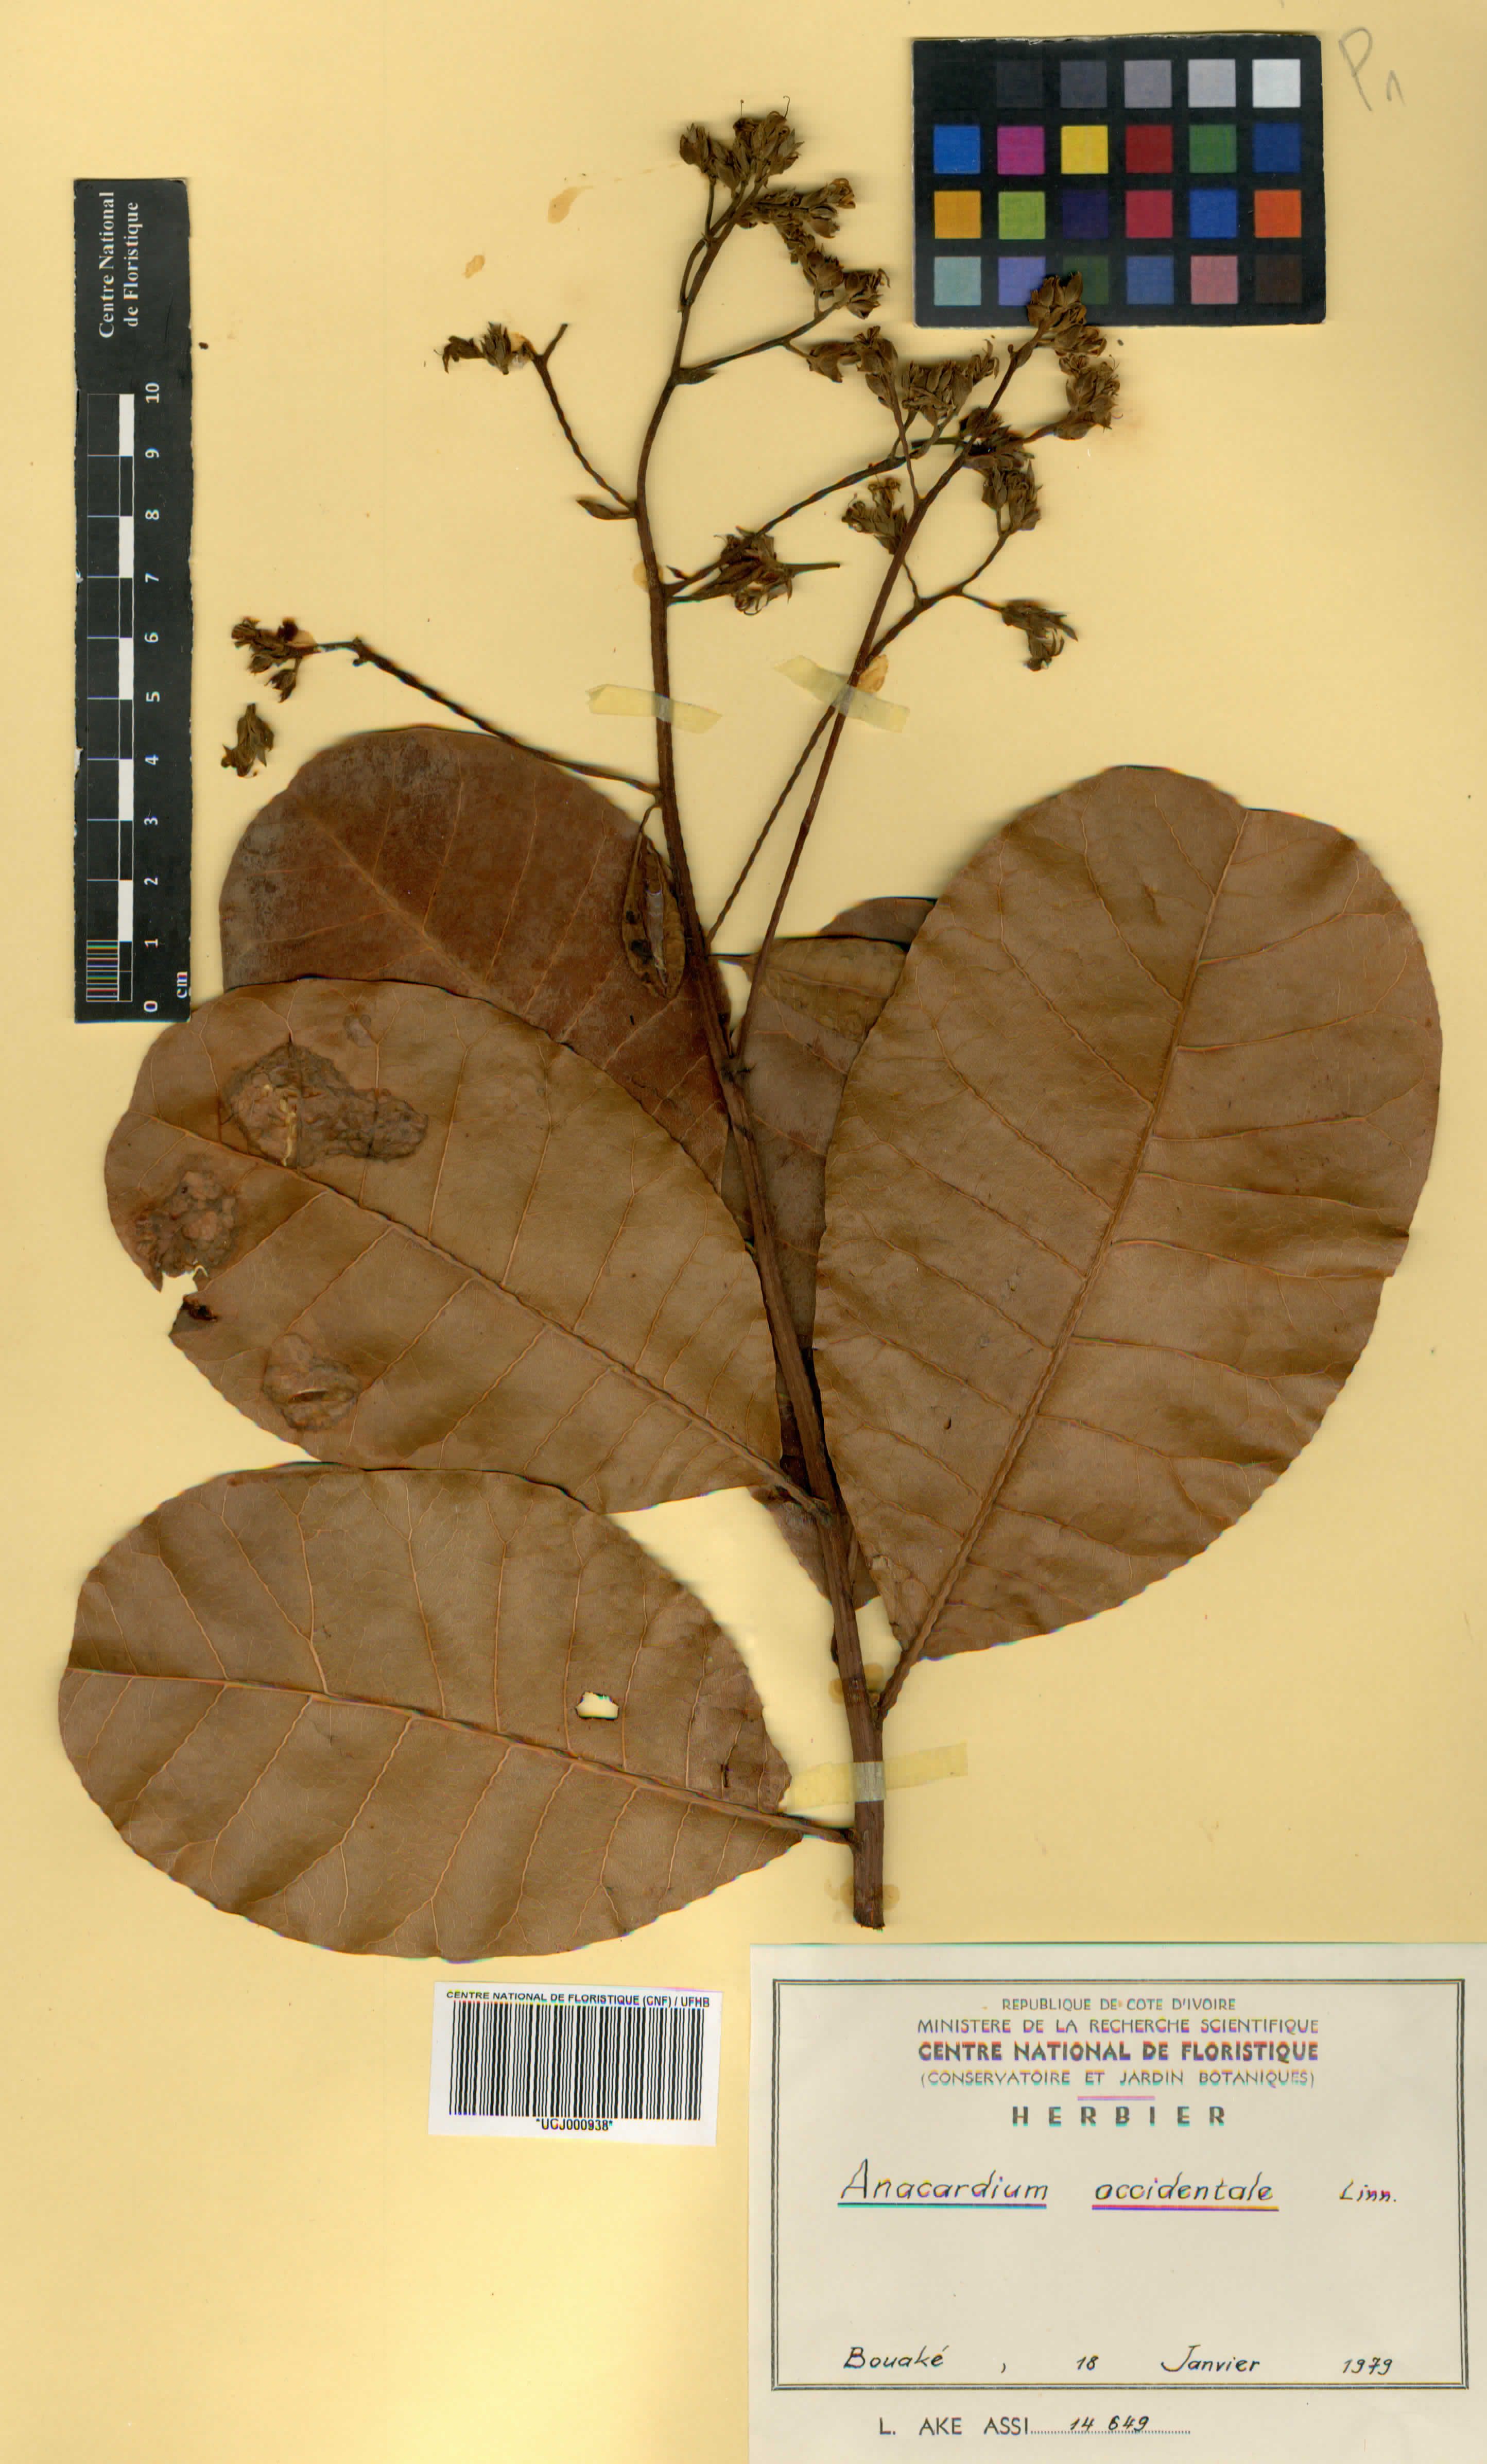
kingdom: Plantae
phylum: Tracheophyta
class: Magnoliopsida
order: Sapindales
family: Anacardiaceae
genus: Anacardium
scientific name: Anacardium occidentale
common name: Cashew
